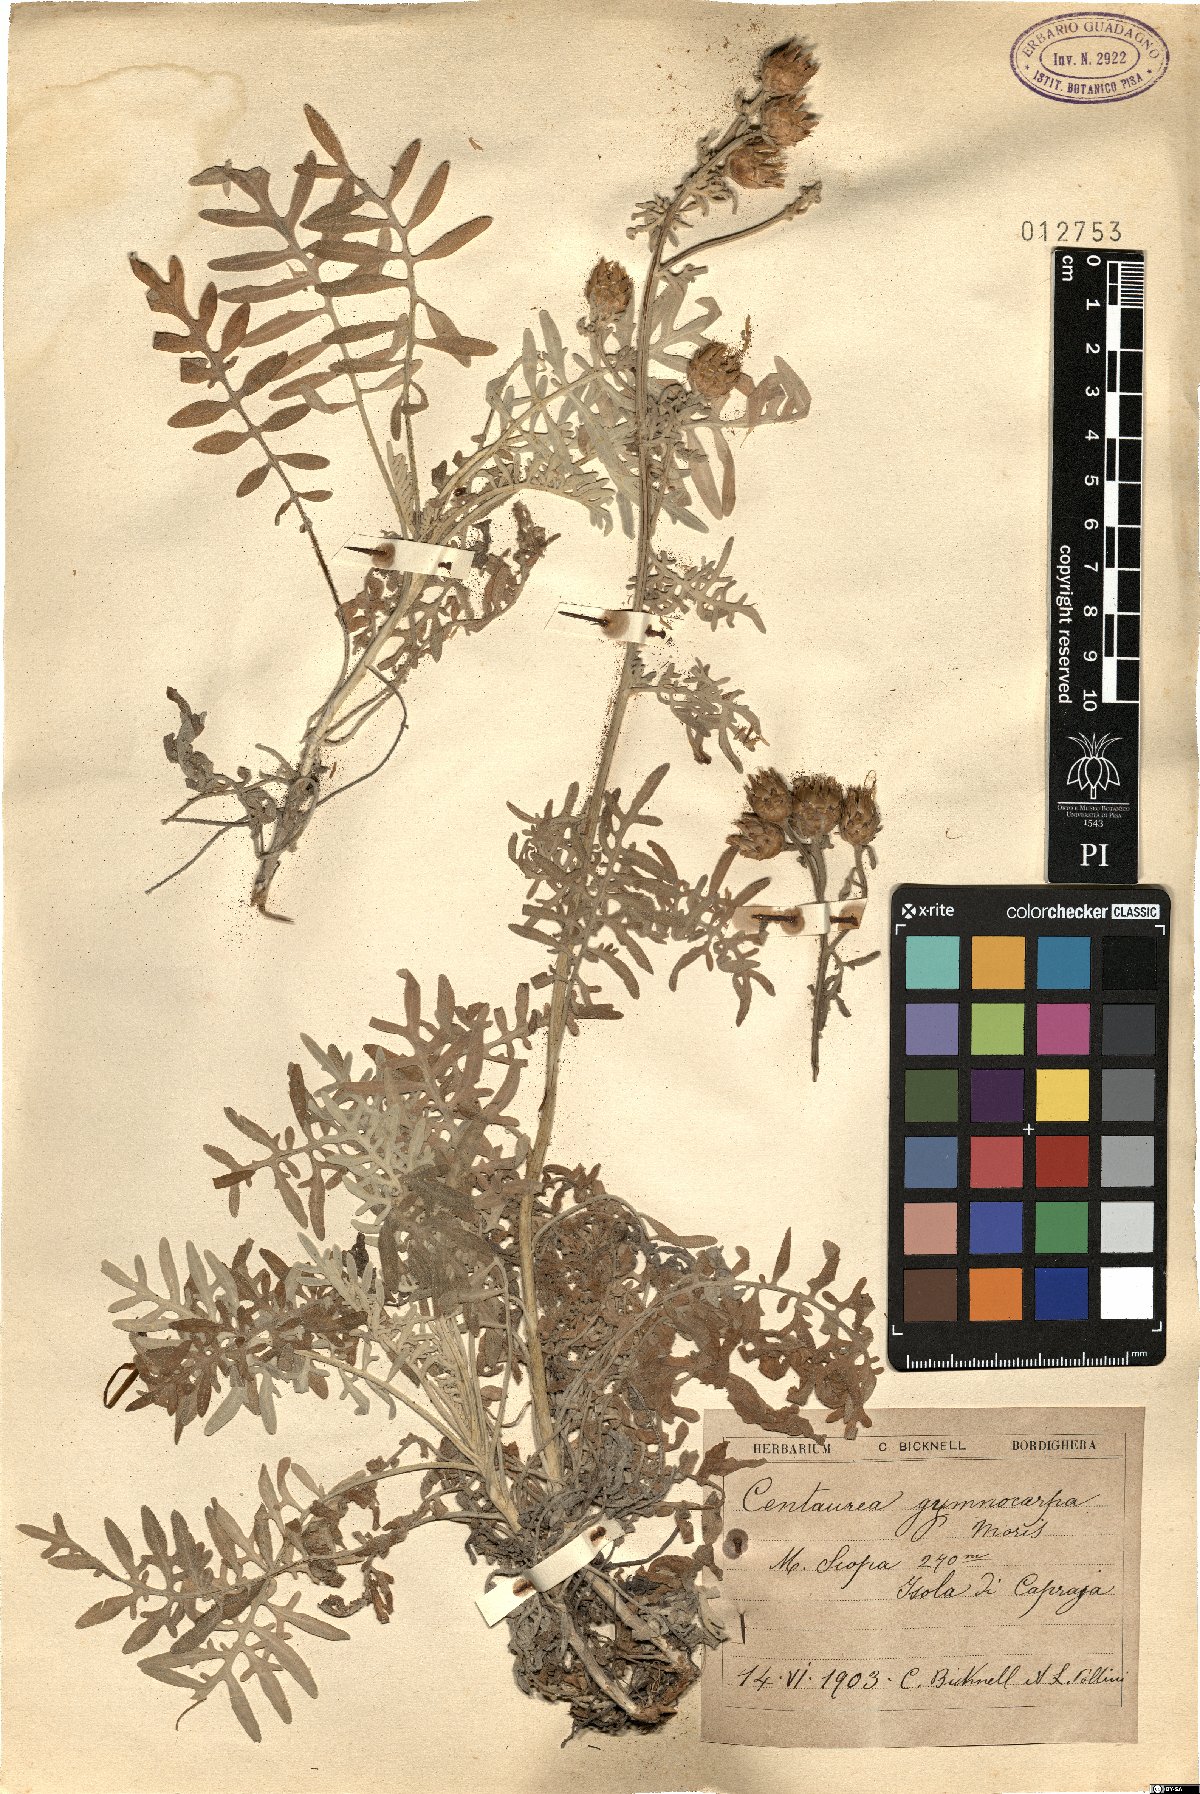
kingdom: Plantae
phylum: Tracheophyta
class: Magnoliopsida
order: Asterales
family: Asteraceae
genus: Centaurea
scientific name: Centaurea gymnocarpa
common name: Dusty-miller
